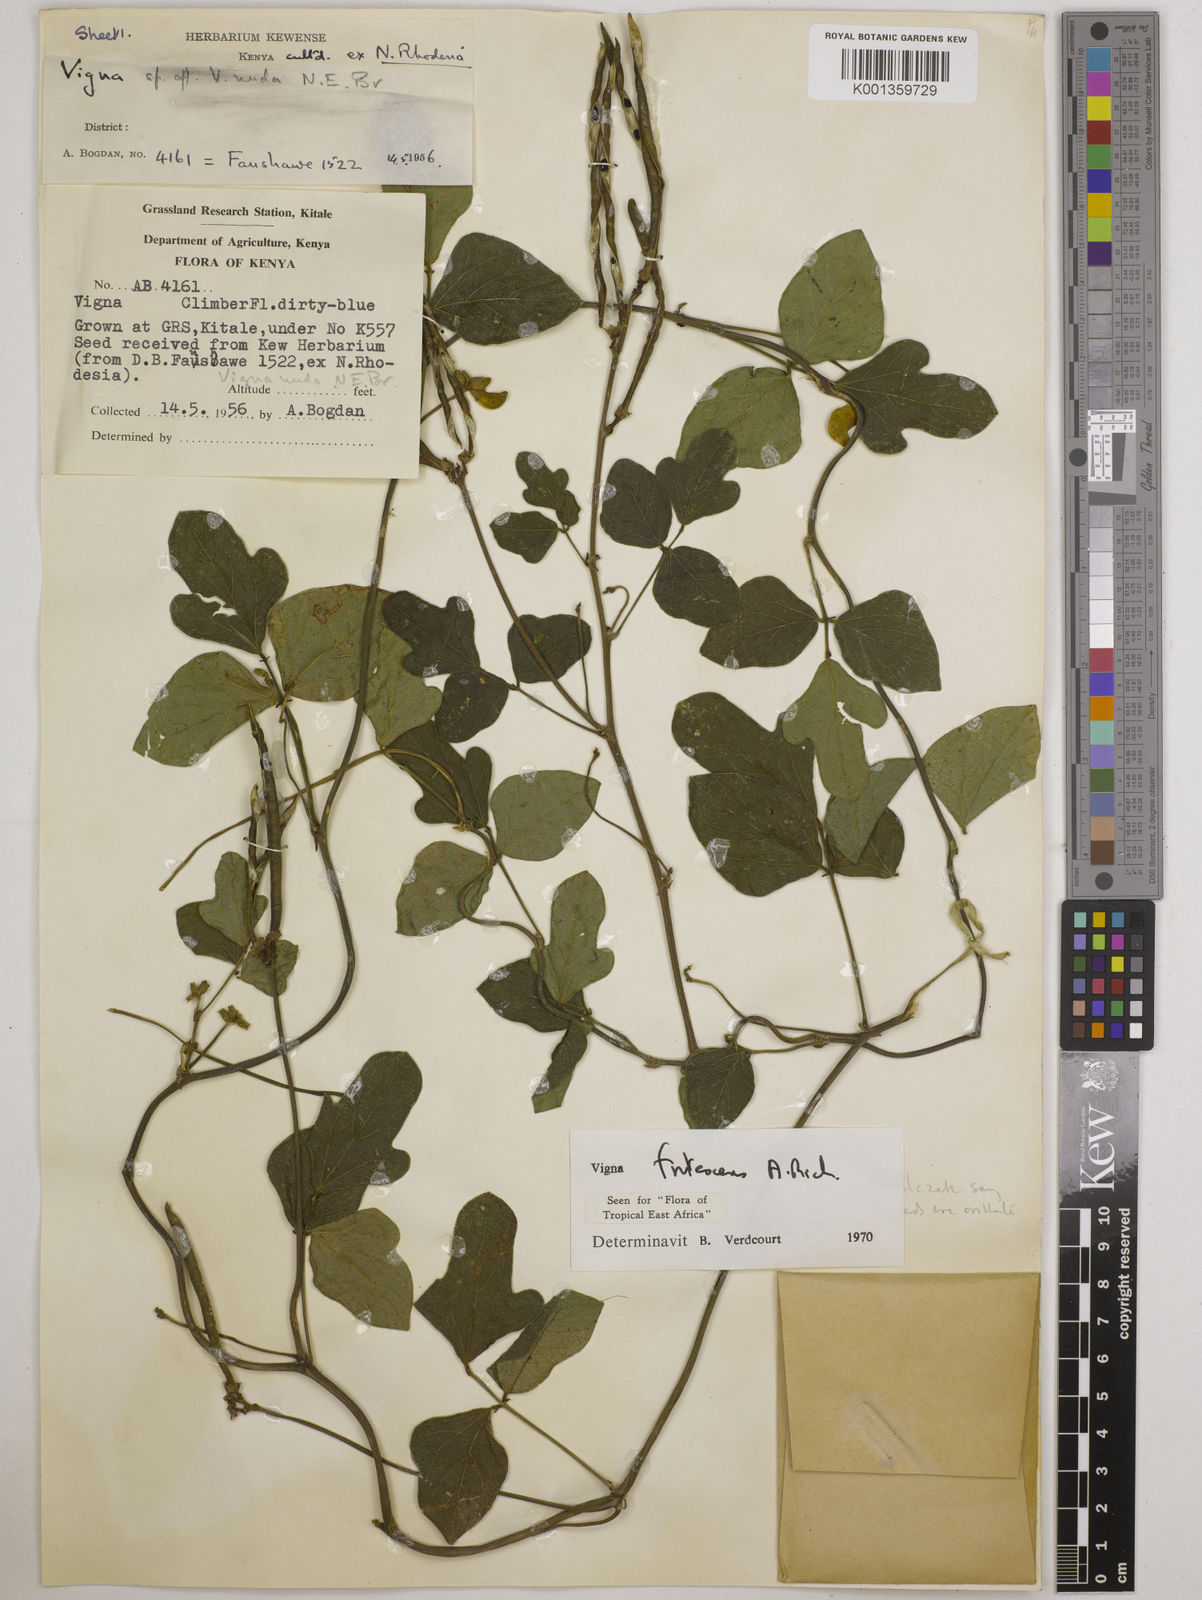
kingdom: Plantae
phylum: Tracheophyta
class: Magnoliopsida
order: Fabales
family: Fabaceae
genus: Vigna
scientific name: Vigna frutescens
